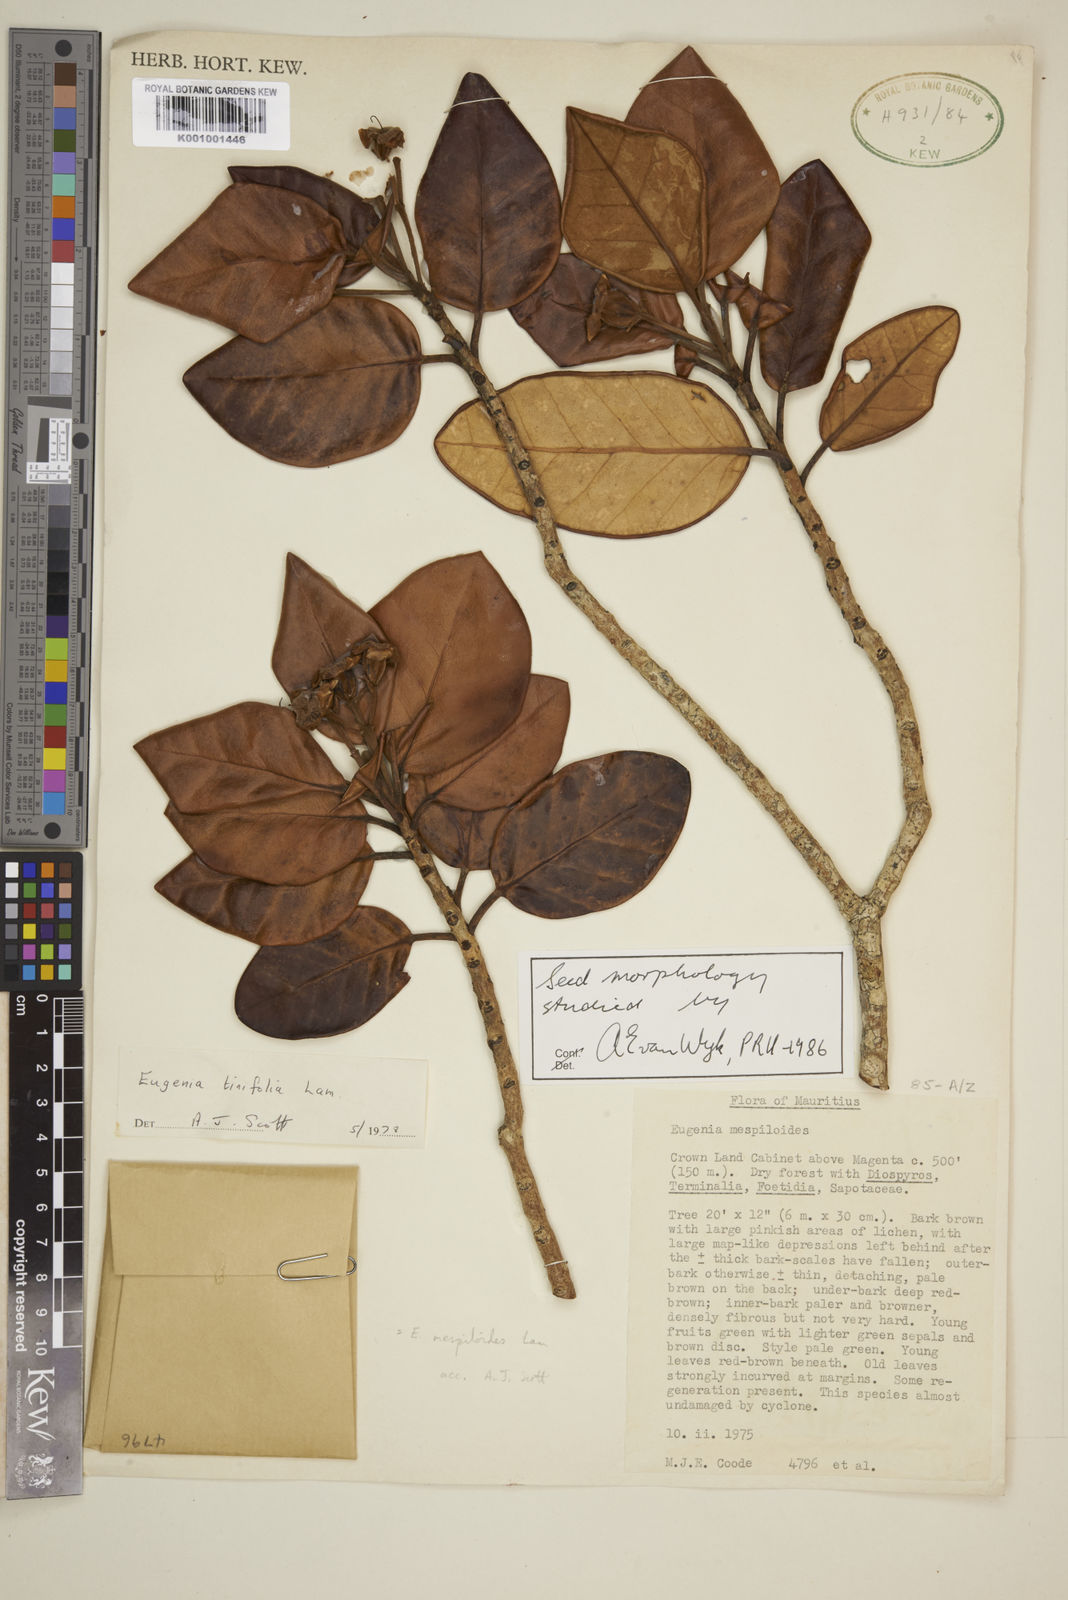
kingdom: Plantae
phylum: Tracheophyta
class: Magnoliopsida
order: Myrtales
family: Myrtaceae
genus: Eugenia
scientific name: Eugenia mespiloides
